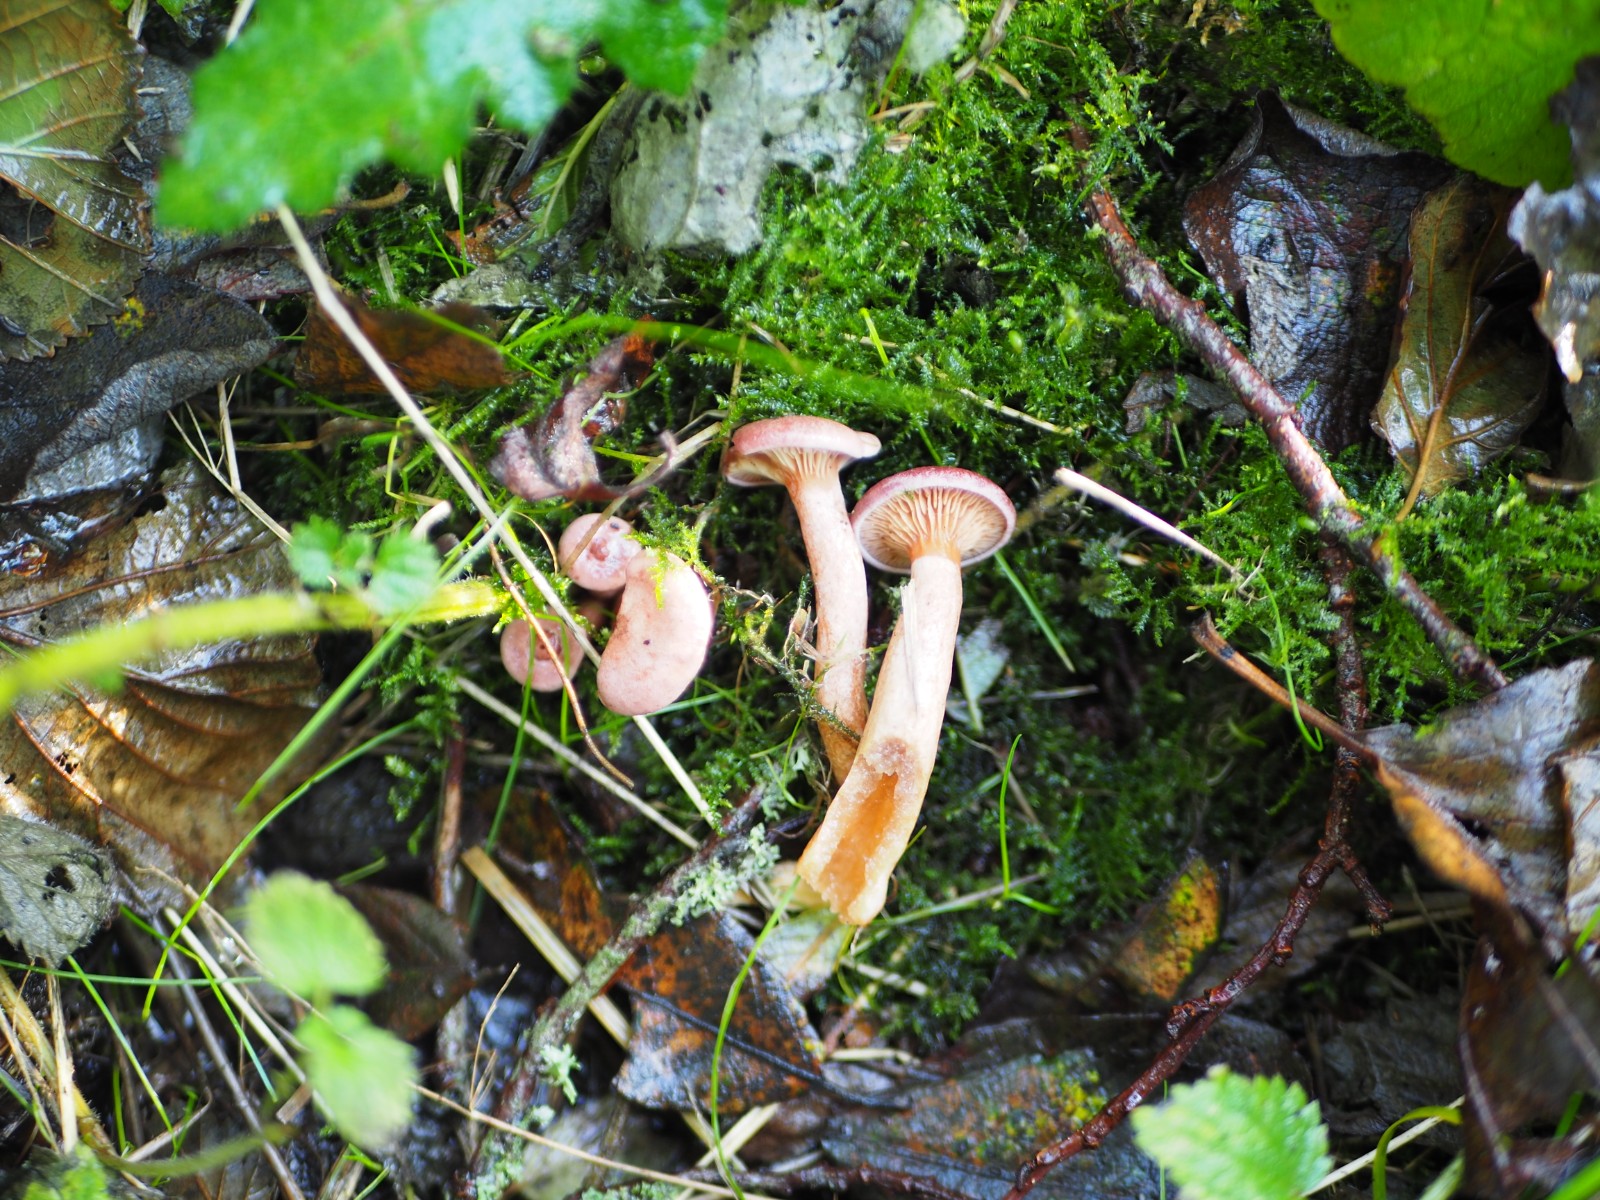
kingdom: Fungi
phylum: Basidiomycota
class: Agaricomycetes
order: Russulales
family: Russulaceae
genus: Lactarius
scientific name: Lactarius lilacinus
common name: lilla mælkehat
